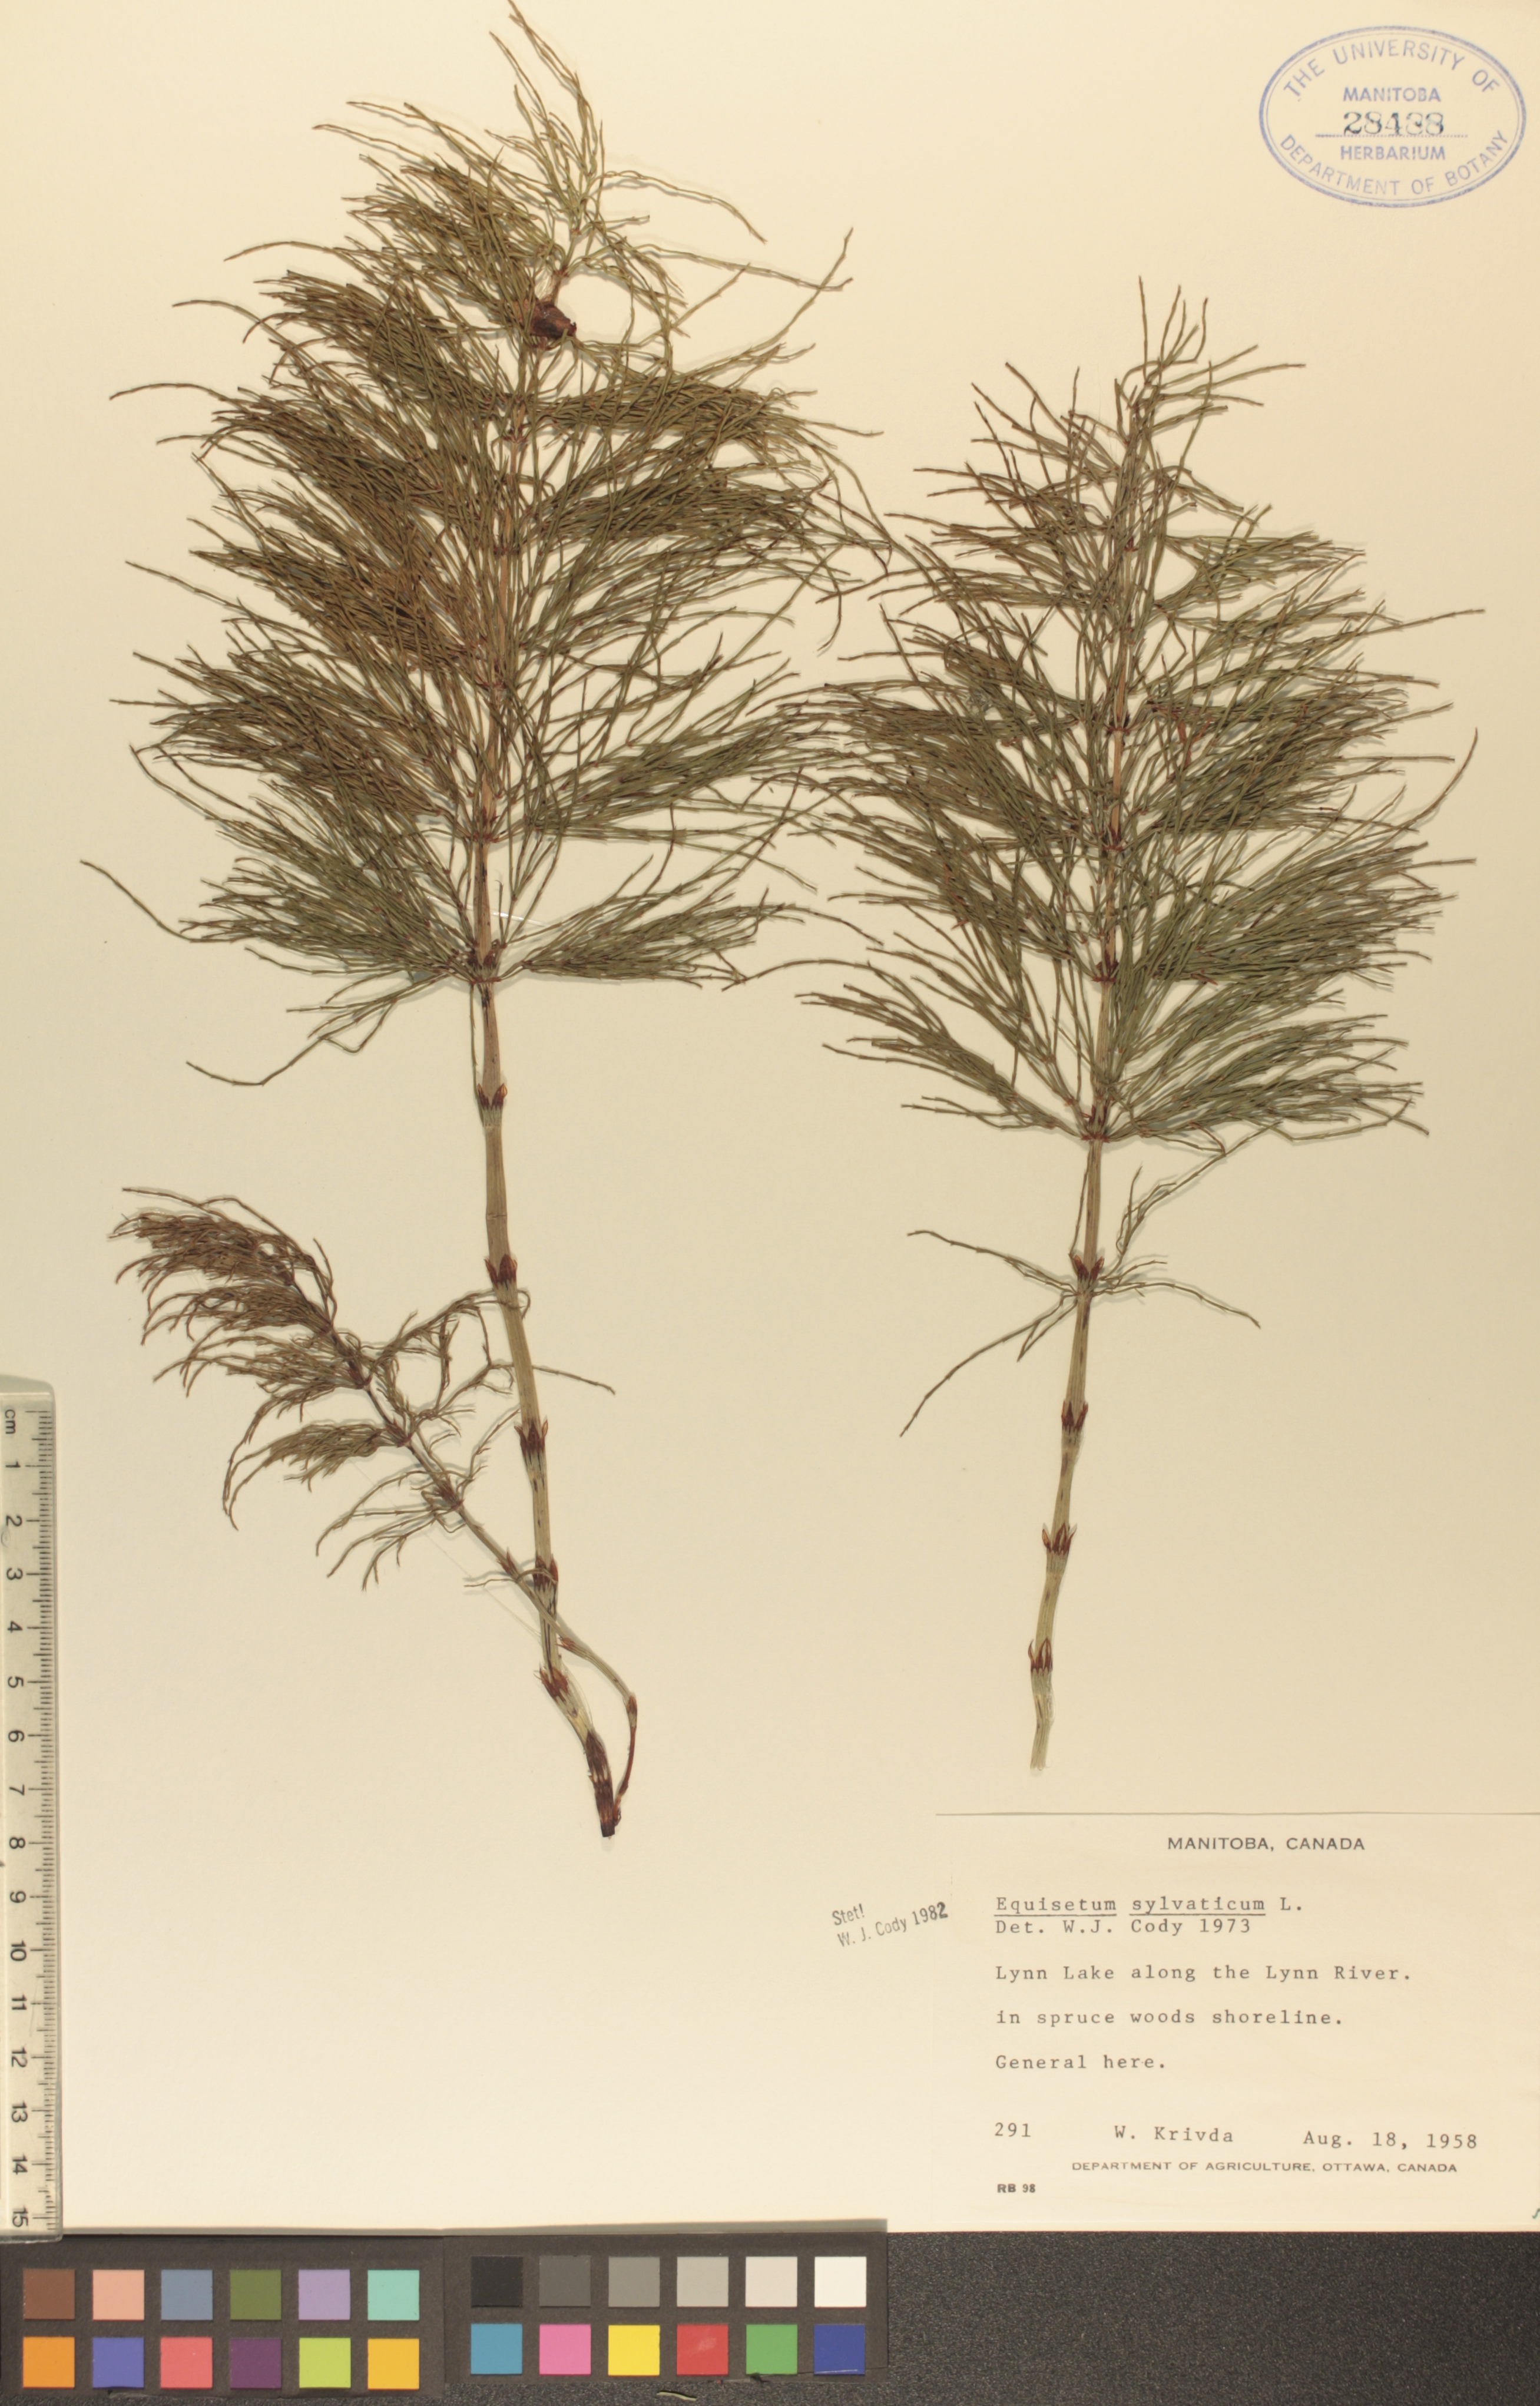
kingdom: Plantae
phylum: Tracheophyta
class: Polypodiopsida
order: Equisetales
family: Equisetaceae
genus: Equisetum
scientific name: Equisetum sylvaticum
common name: Wood horsetail
